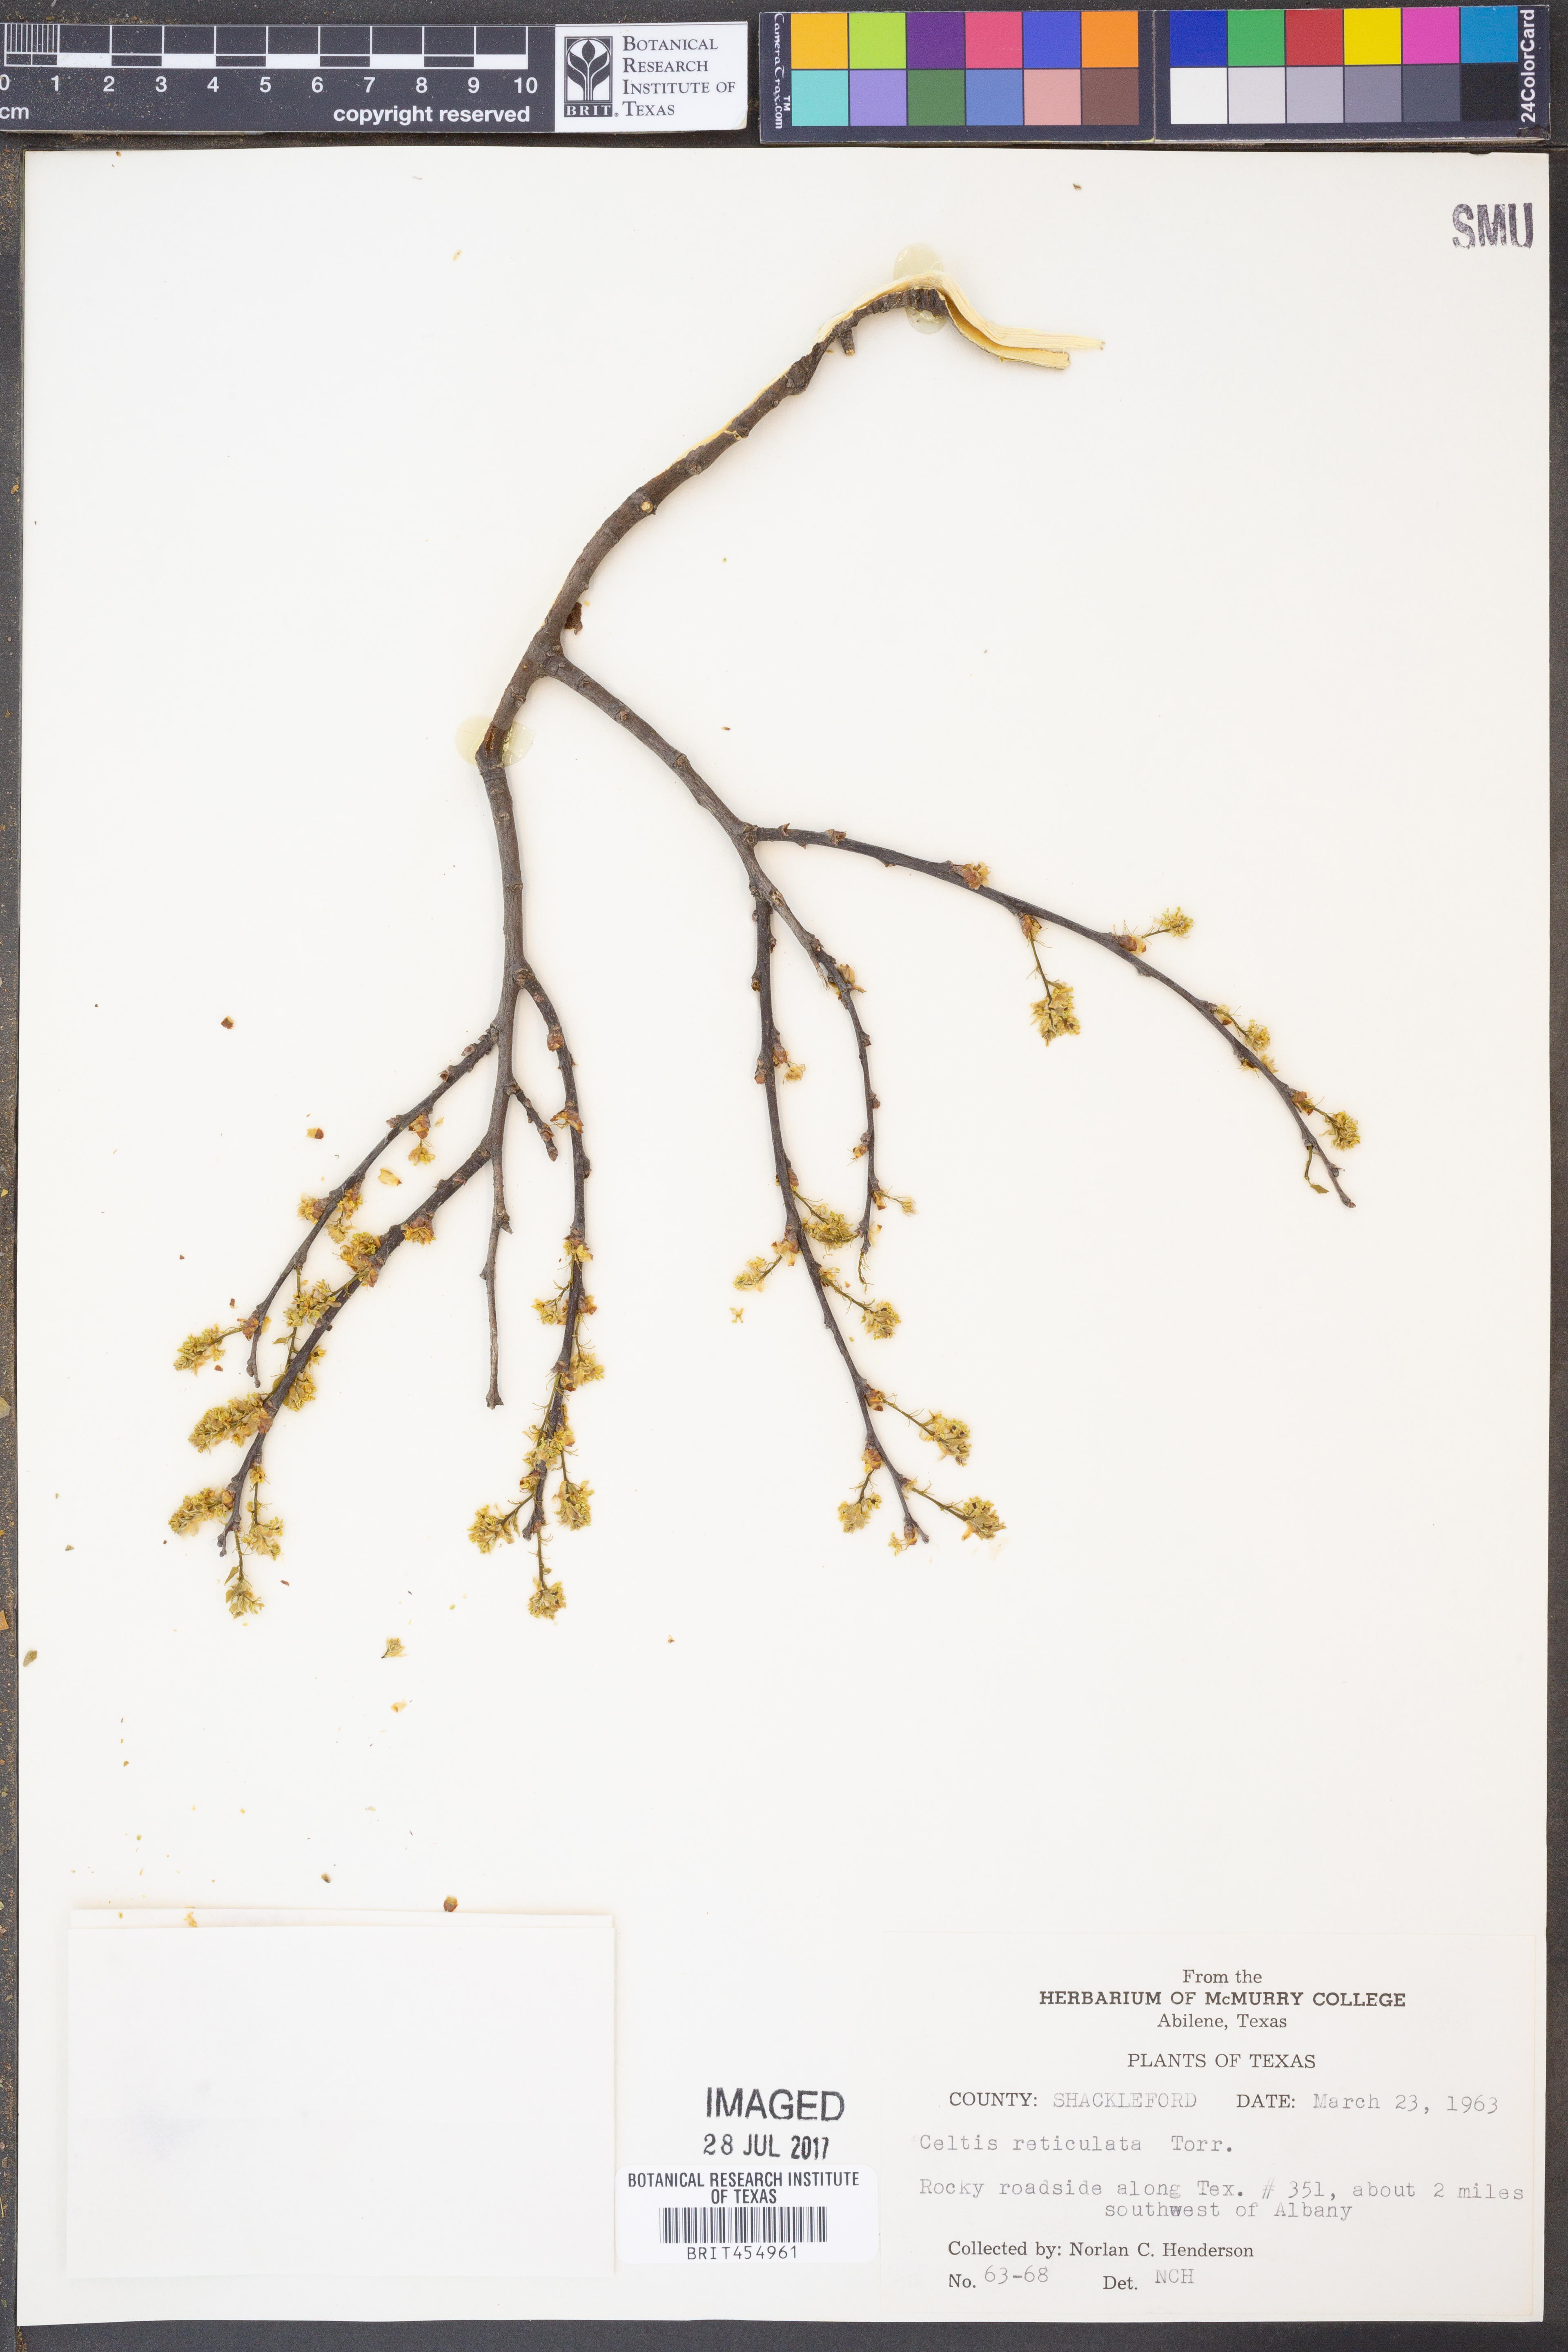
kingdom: Plantae
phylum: Tracheophyta
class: Magnoliopsida
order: Rosales
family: Cannabaceae
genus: Celtis
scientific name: Celtis reticulata
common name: Netleaf hackberry
